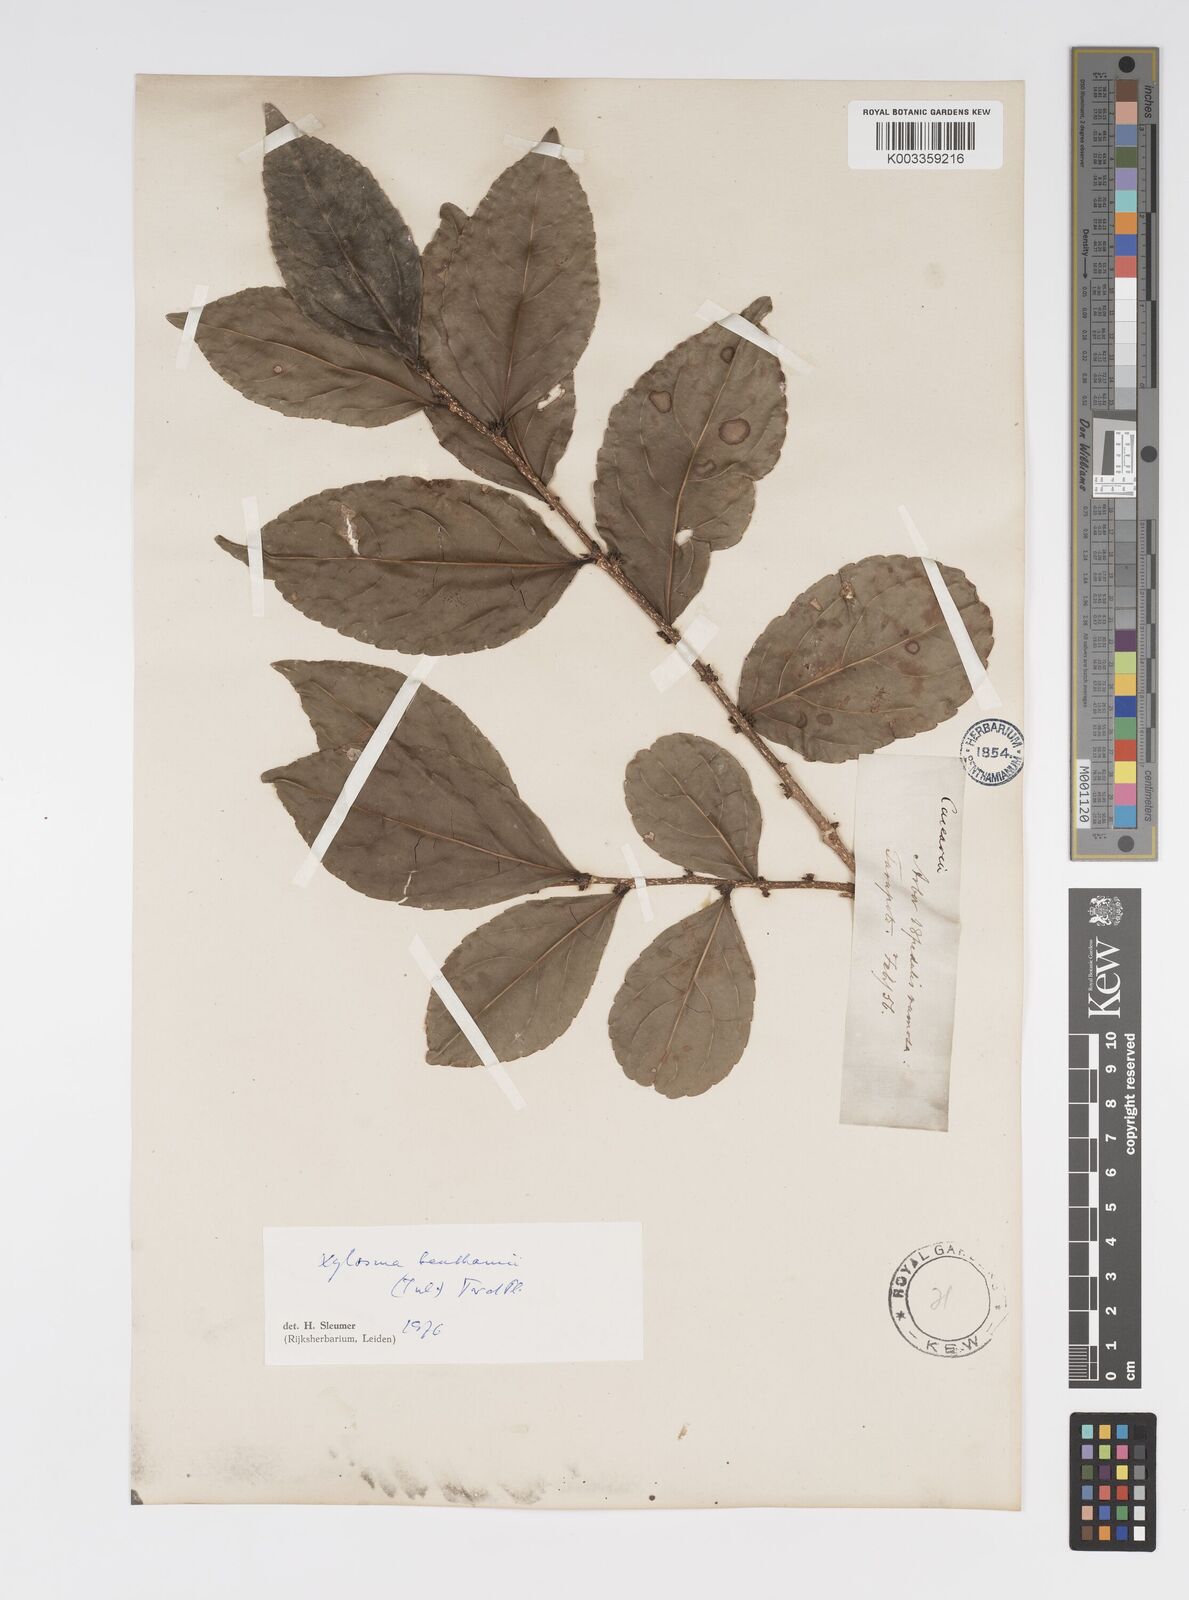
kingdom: Plantae
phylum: Tracheophyta
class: Magnoliopsida
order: Malpighiales
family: Salicaceae
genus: Xylosma
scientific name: Xylosma benthamii
